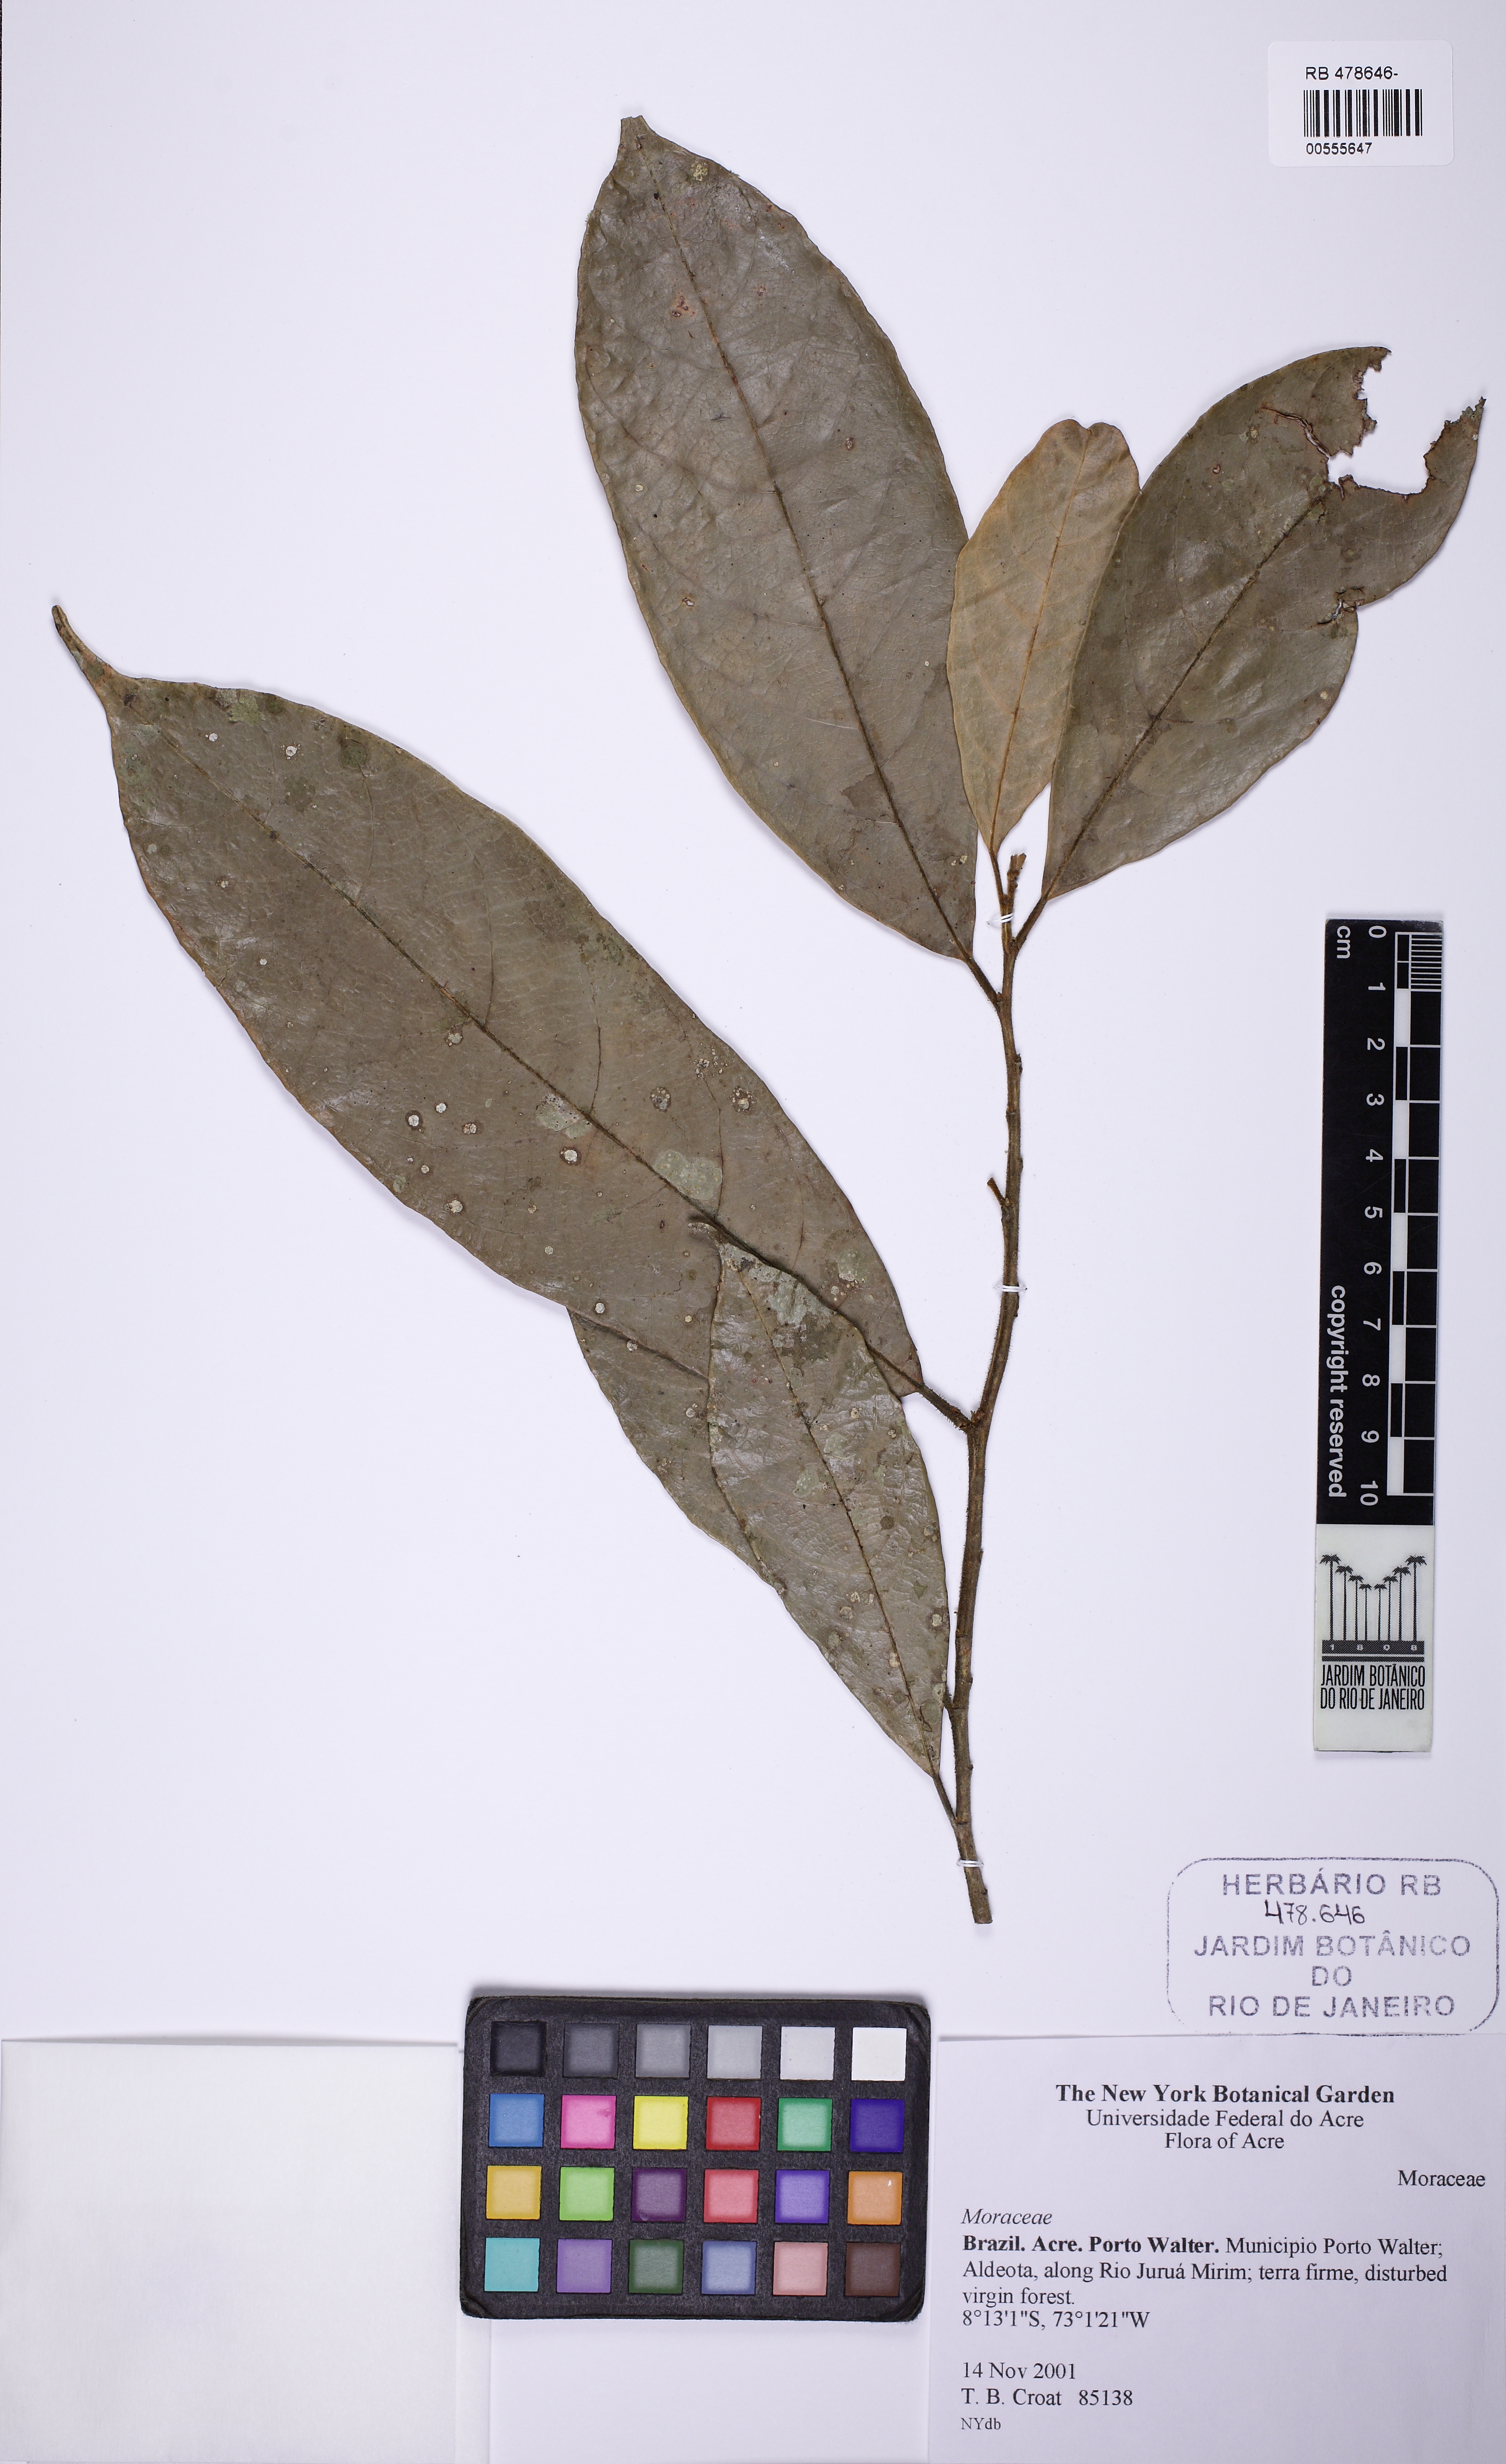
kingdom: Plantae
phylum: Tracheophyta
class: Magnoliopsida
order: Rosales
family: Moraceae
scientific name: Moraceae
